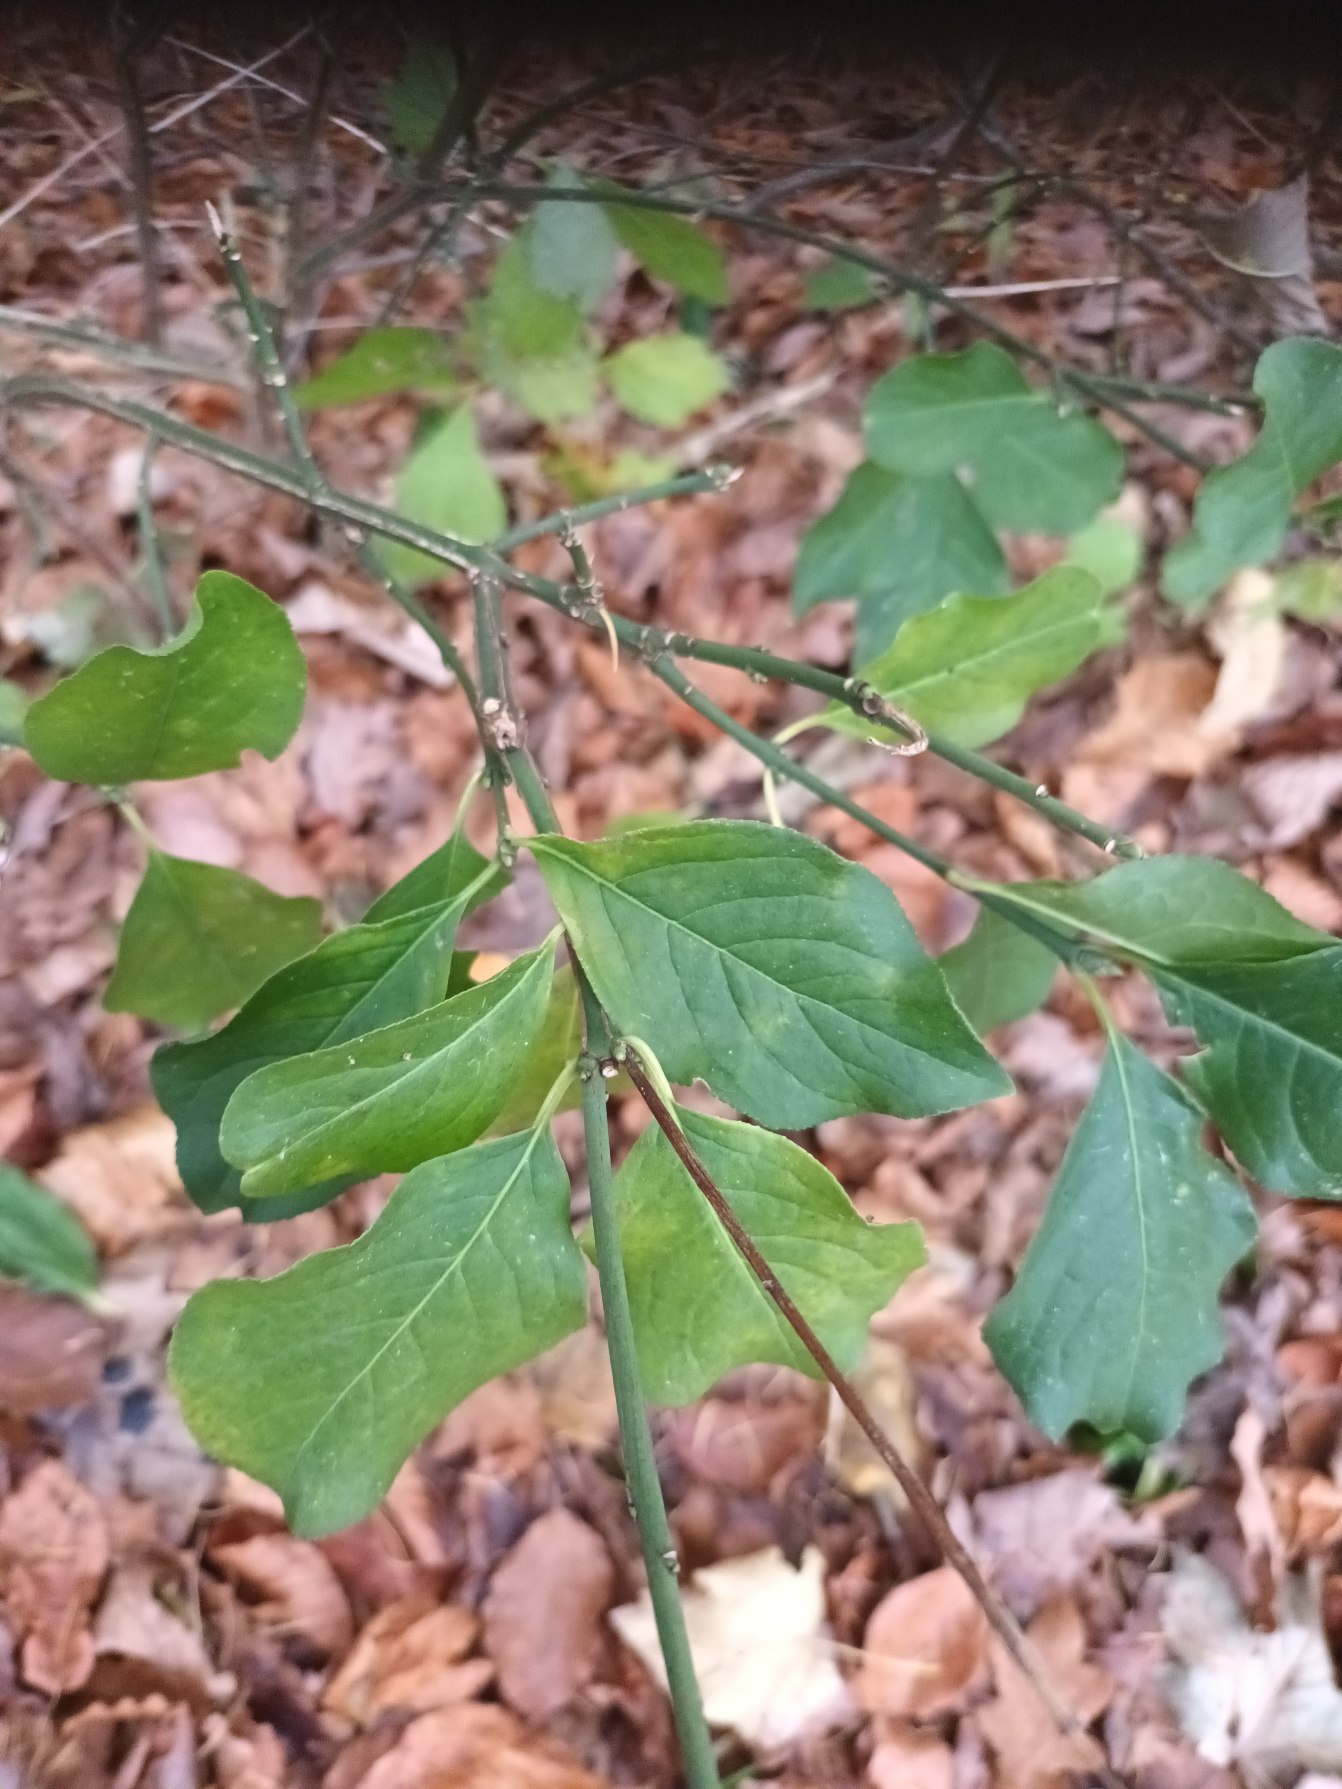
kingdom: Plantae
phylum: Tracheophyta
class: Magnoliopsida
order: Celastrales
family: Celastraceae
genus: Euonymus
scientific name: Euonymus europaeus
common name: Benved
